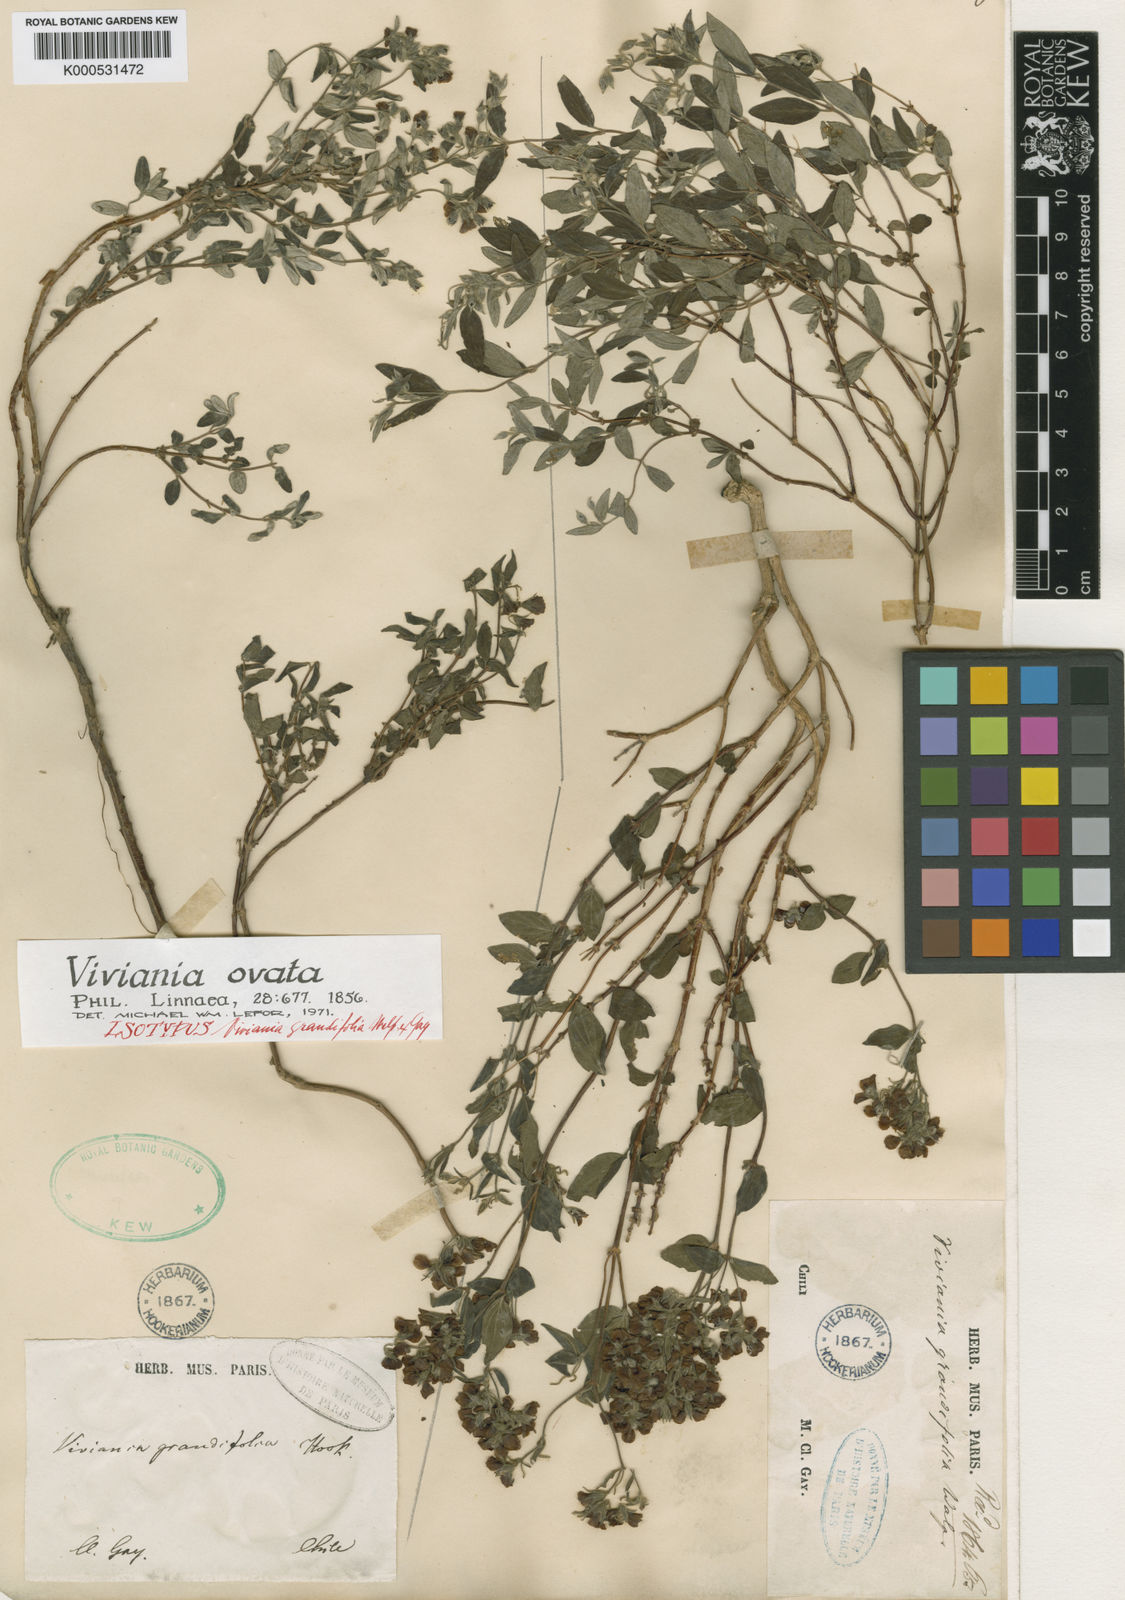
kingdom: Plantae
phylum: Tracheophyta
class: Magnoliopsida
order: Geraniales
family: Vivianiaceae
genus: Viviania
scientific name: Viviania ovata
